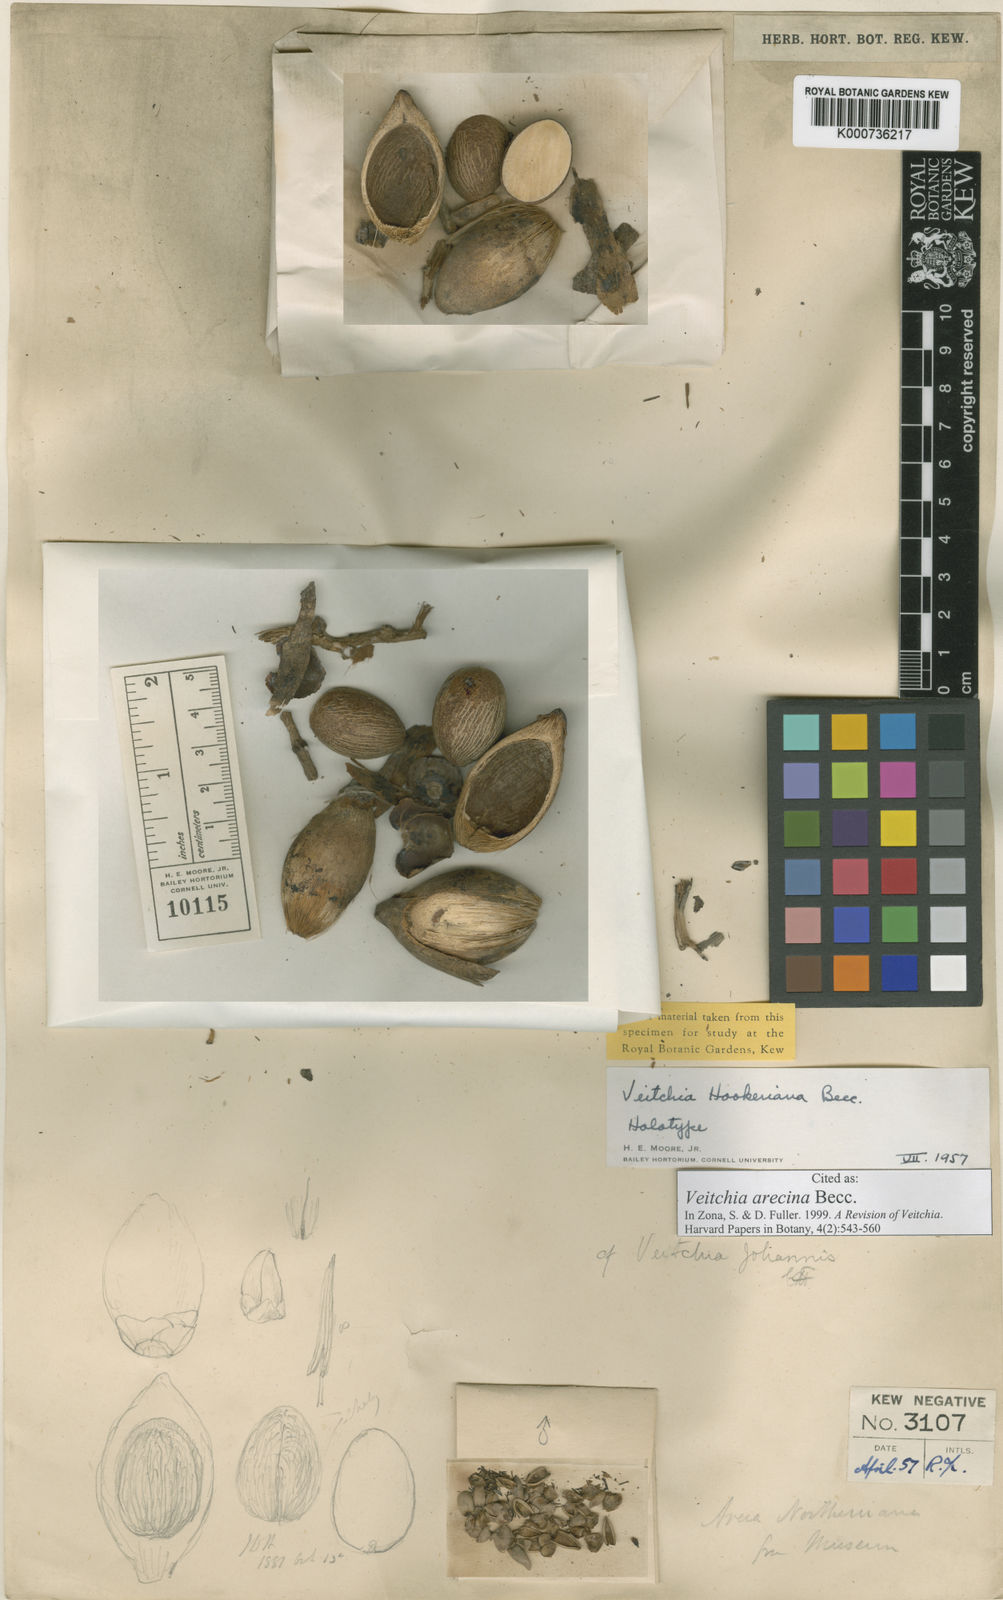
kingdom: Plantae
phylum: Tracheophyta
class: Liliopsida
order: Arecales
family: Arecaceae
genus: Veitchia
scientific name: Veitchia arecina
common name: Montgomery palm
